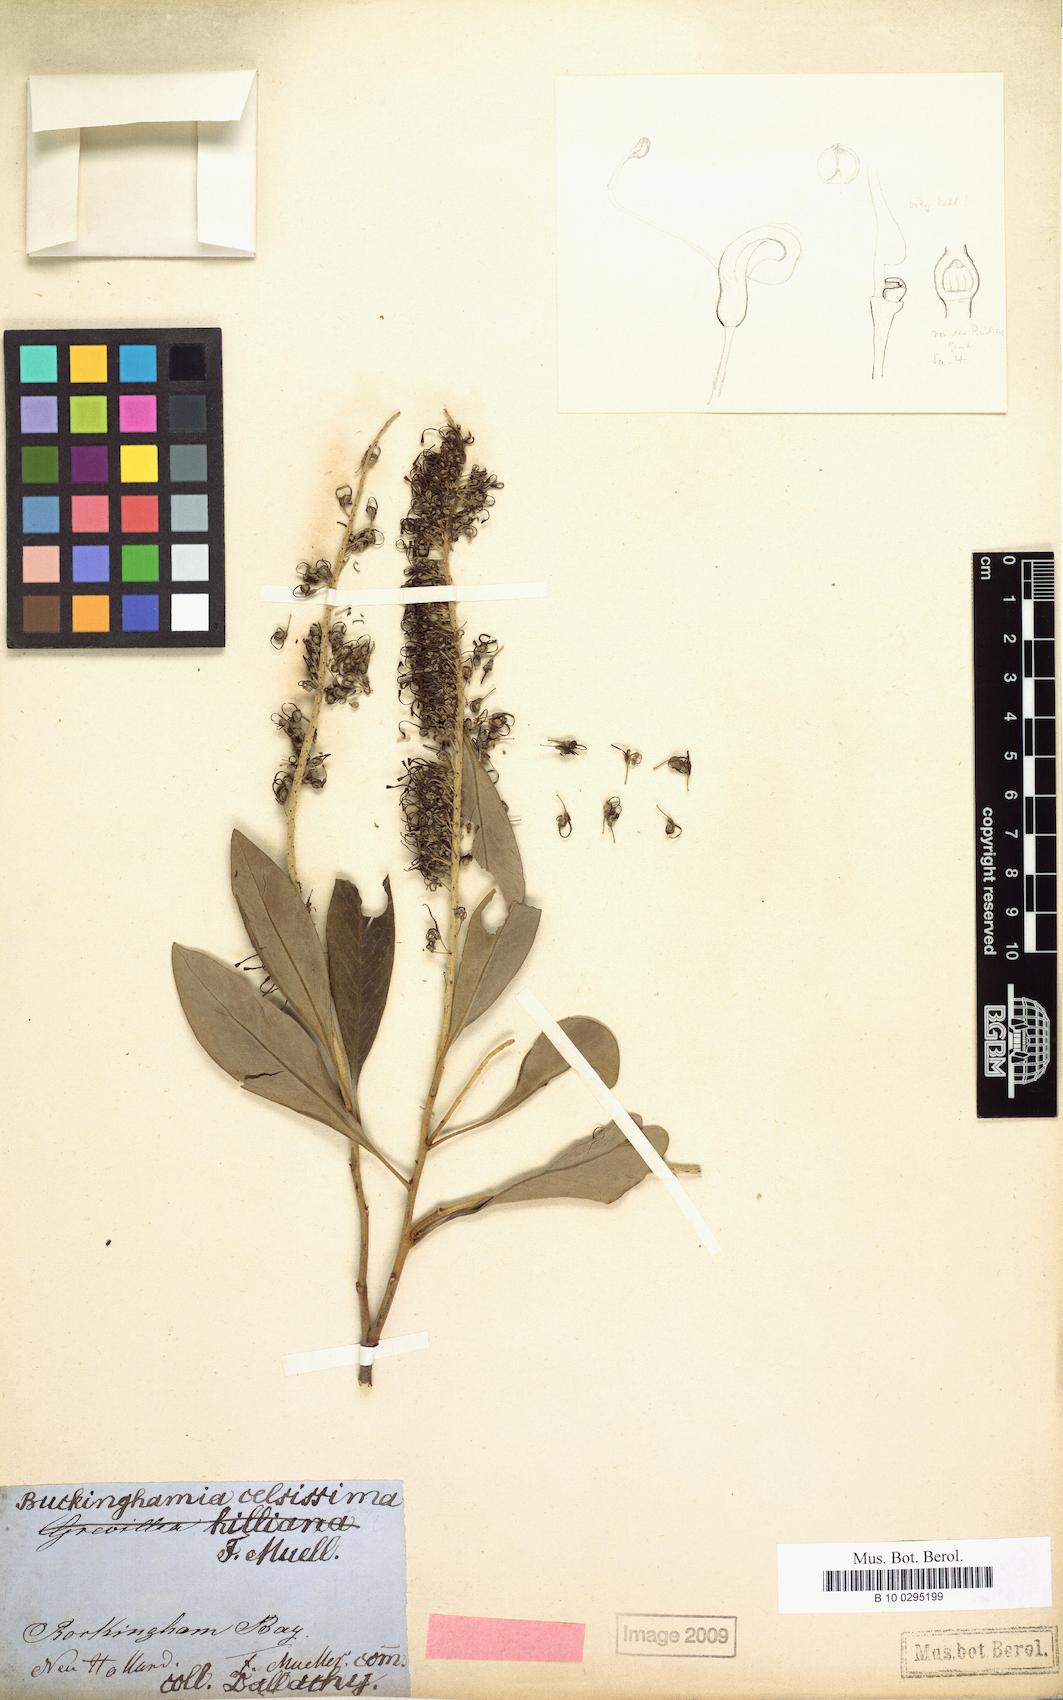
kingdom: Plantae
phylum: Tracheophyta
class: Magnoliopsida
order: Proteales
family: Proteaceae
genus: Buckinghamia
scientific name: Buckinghamia celsissima
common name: Spotted silky-oak
